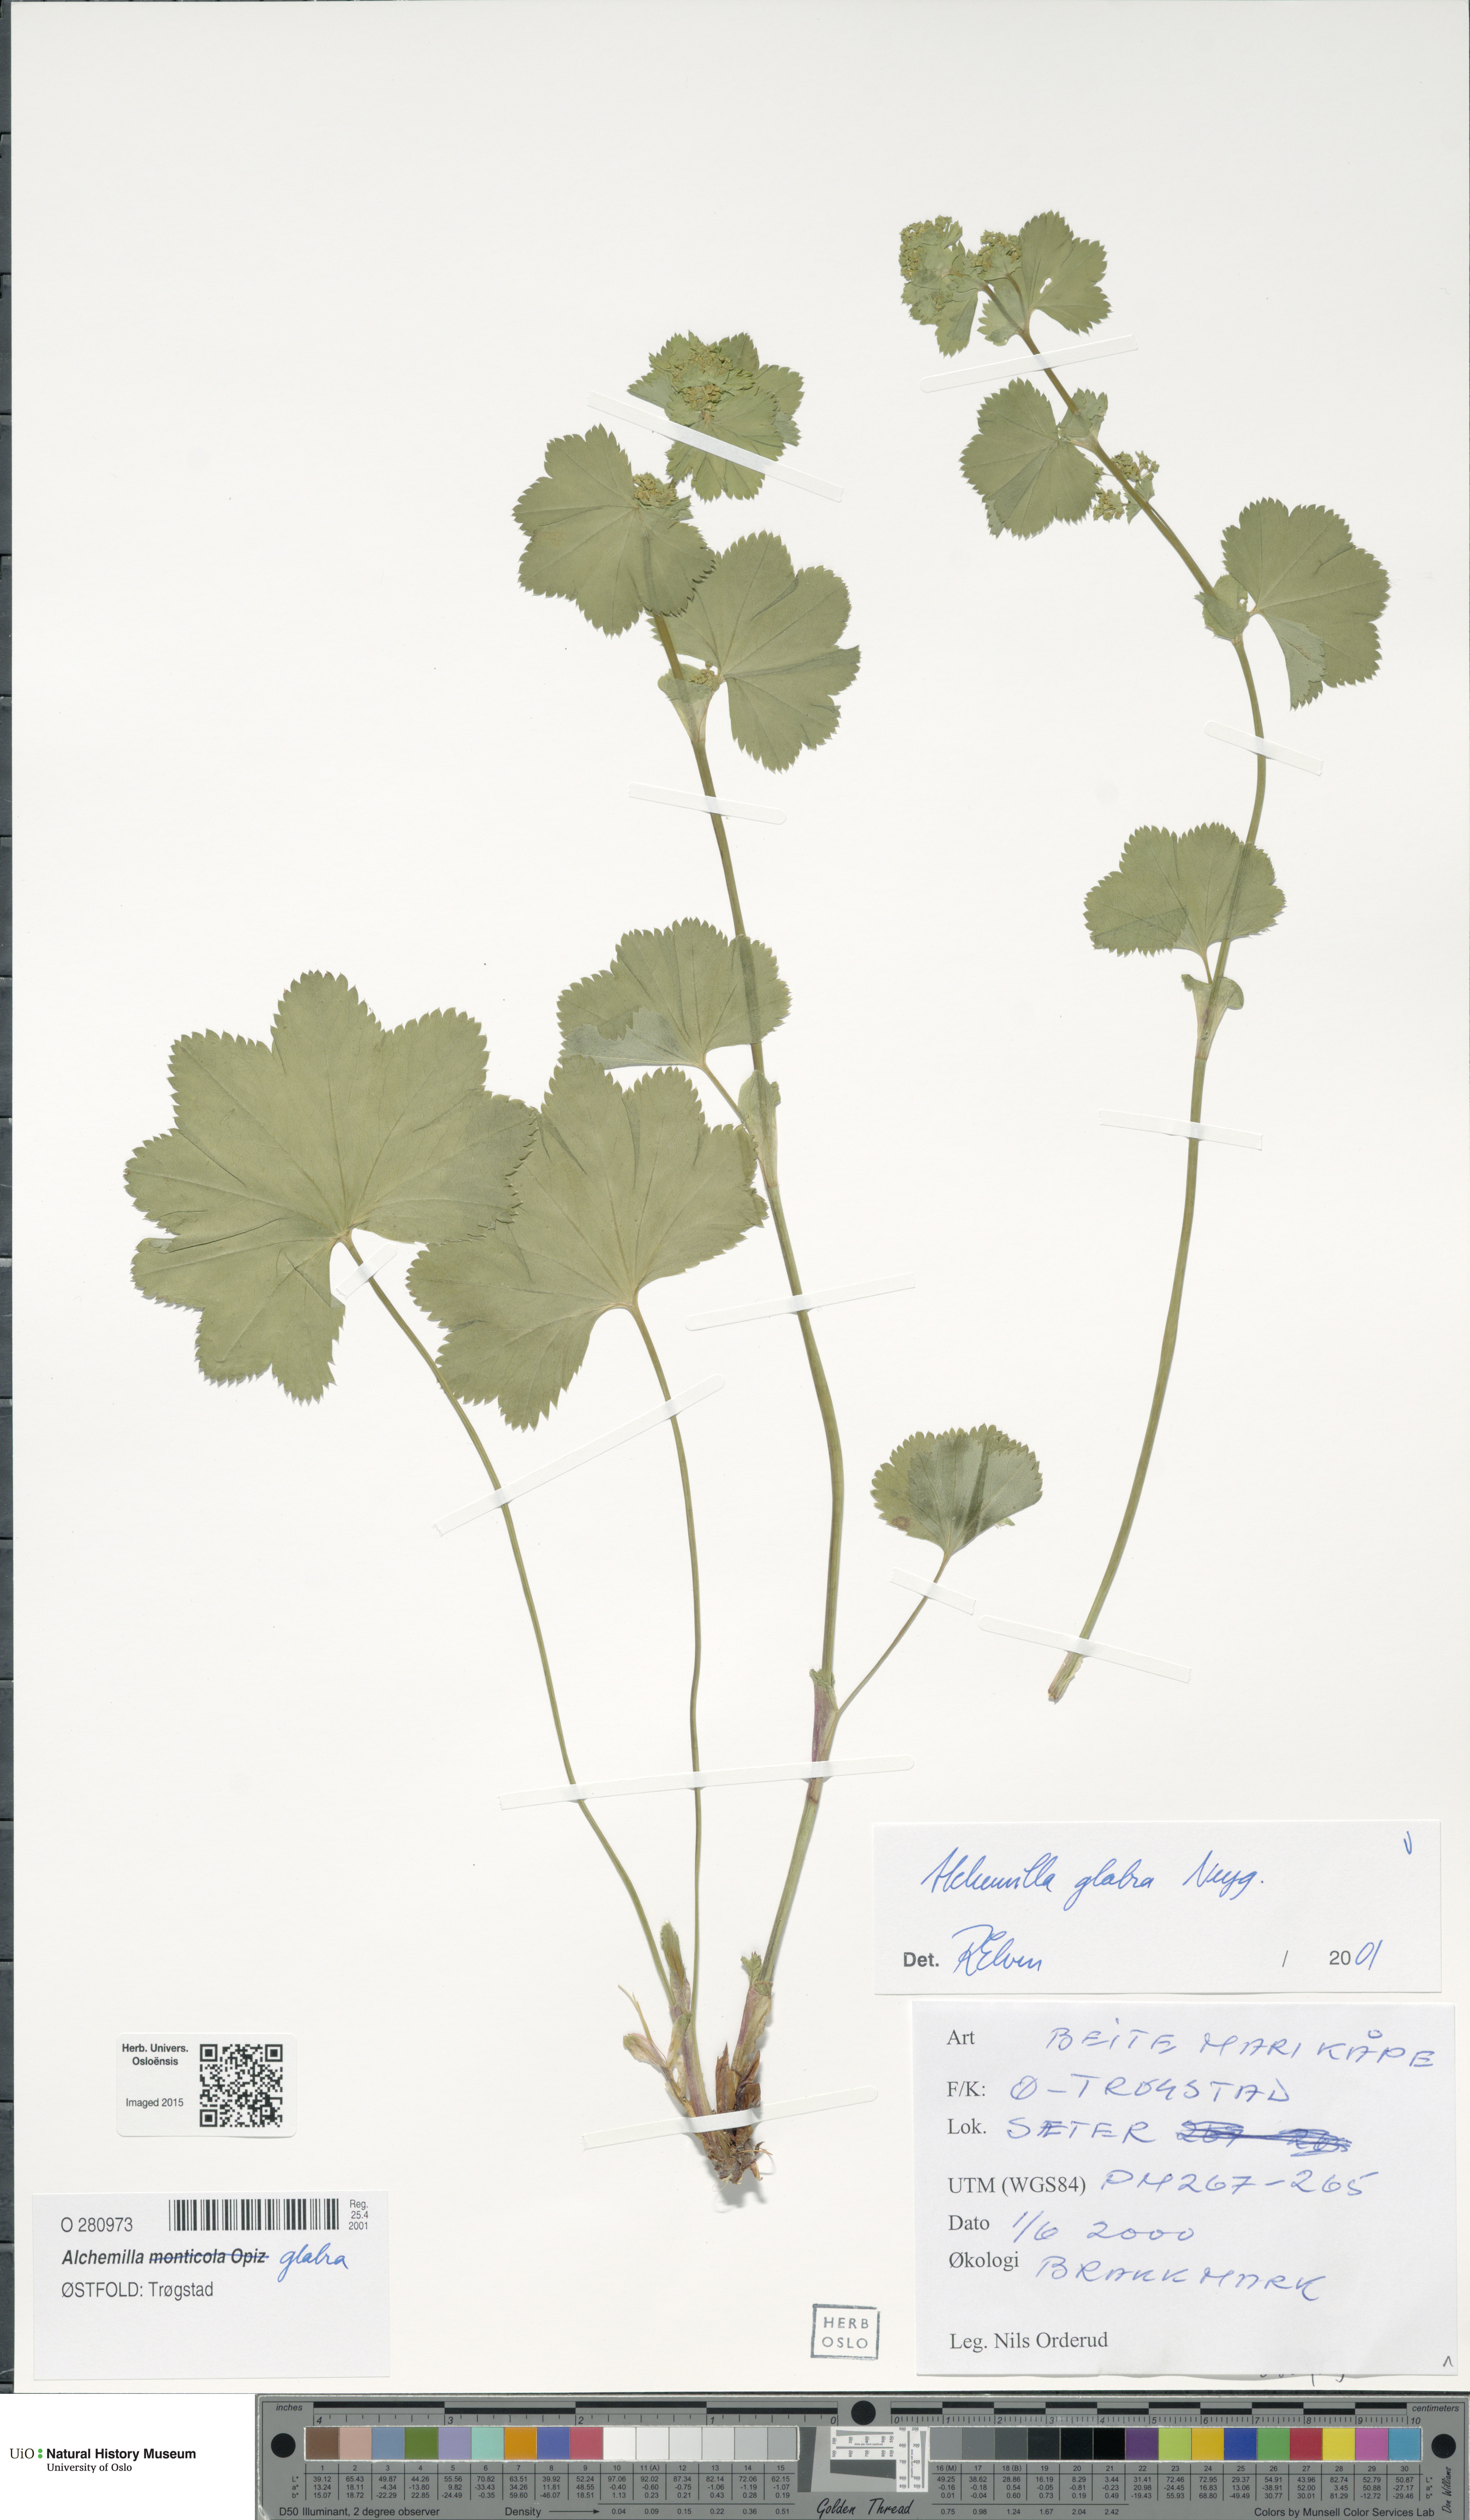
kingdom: Plantae
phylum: Tracheophyta
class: Magnoliopsida
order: Rosales
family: Rosaceae
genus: Alchemilla
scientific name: Alchemilla glabra
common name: Smooth lady's-mantle
